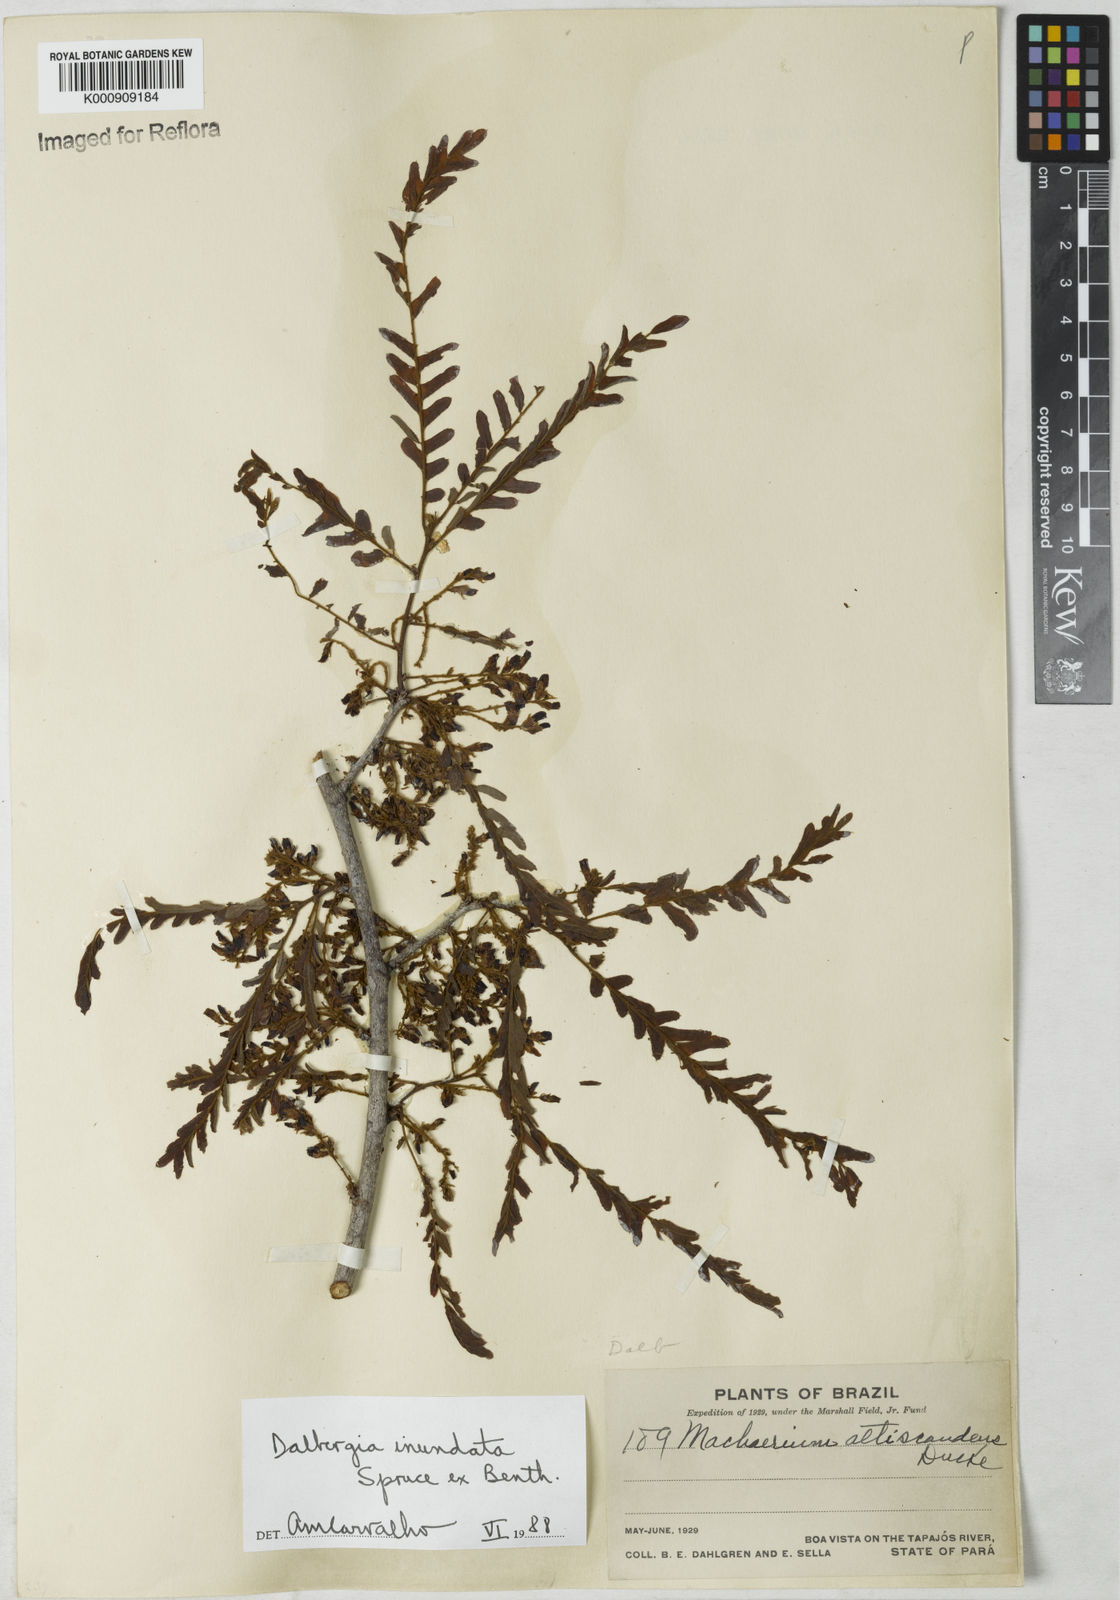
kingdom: Plantae
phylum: Tracheophyta
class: Magnoliopsida
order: Fabales
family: Fabaceae
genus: Dalbergia
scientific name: Dalbergia inundata
